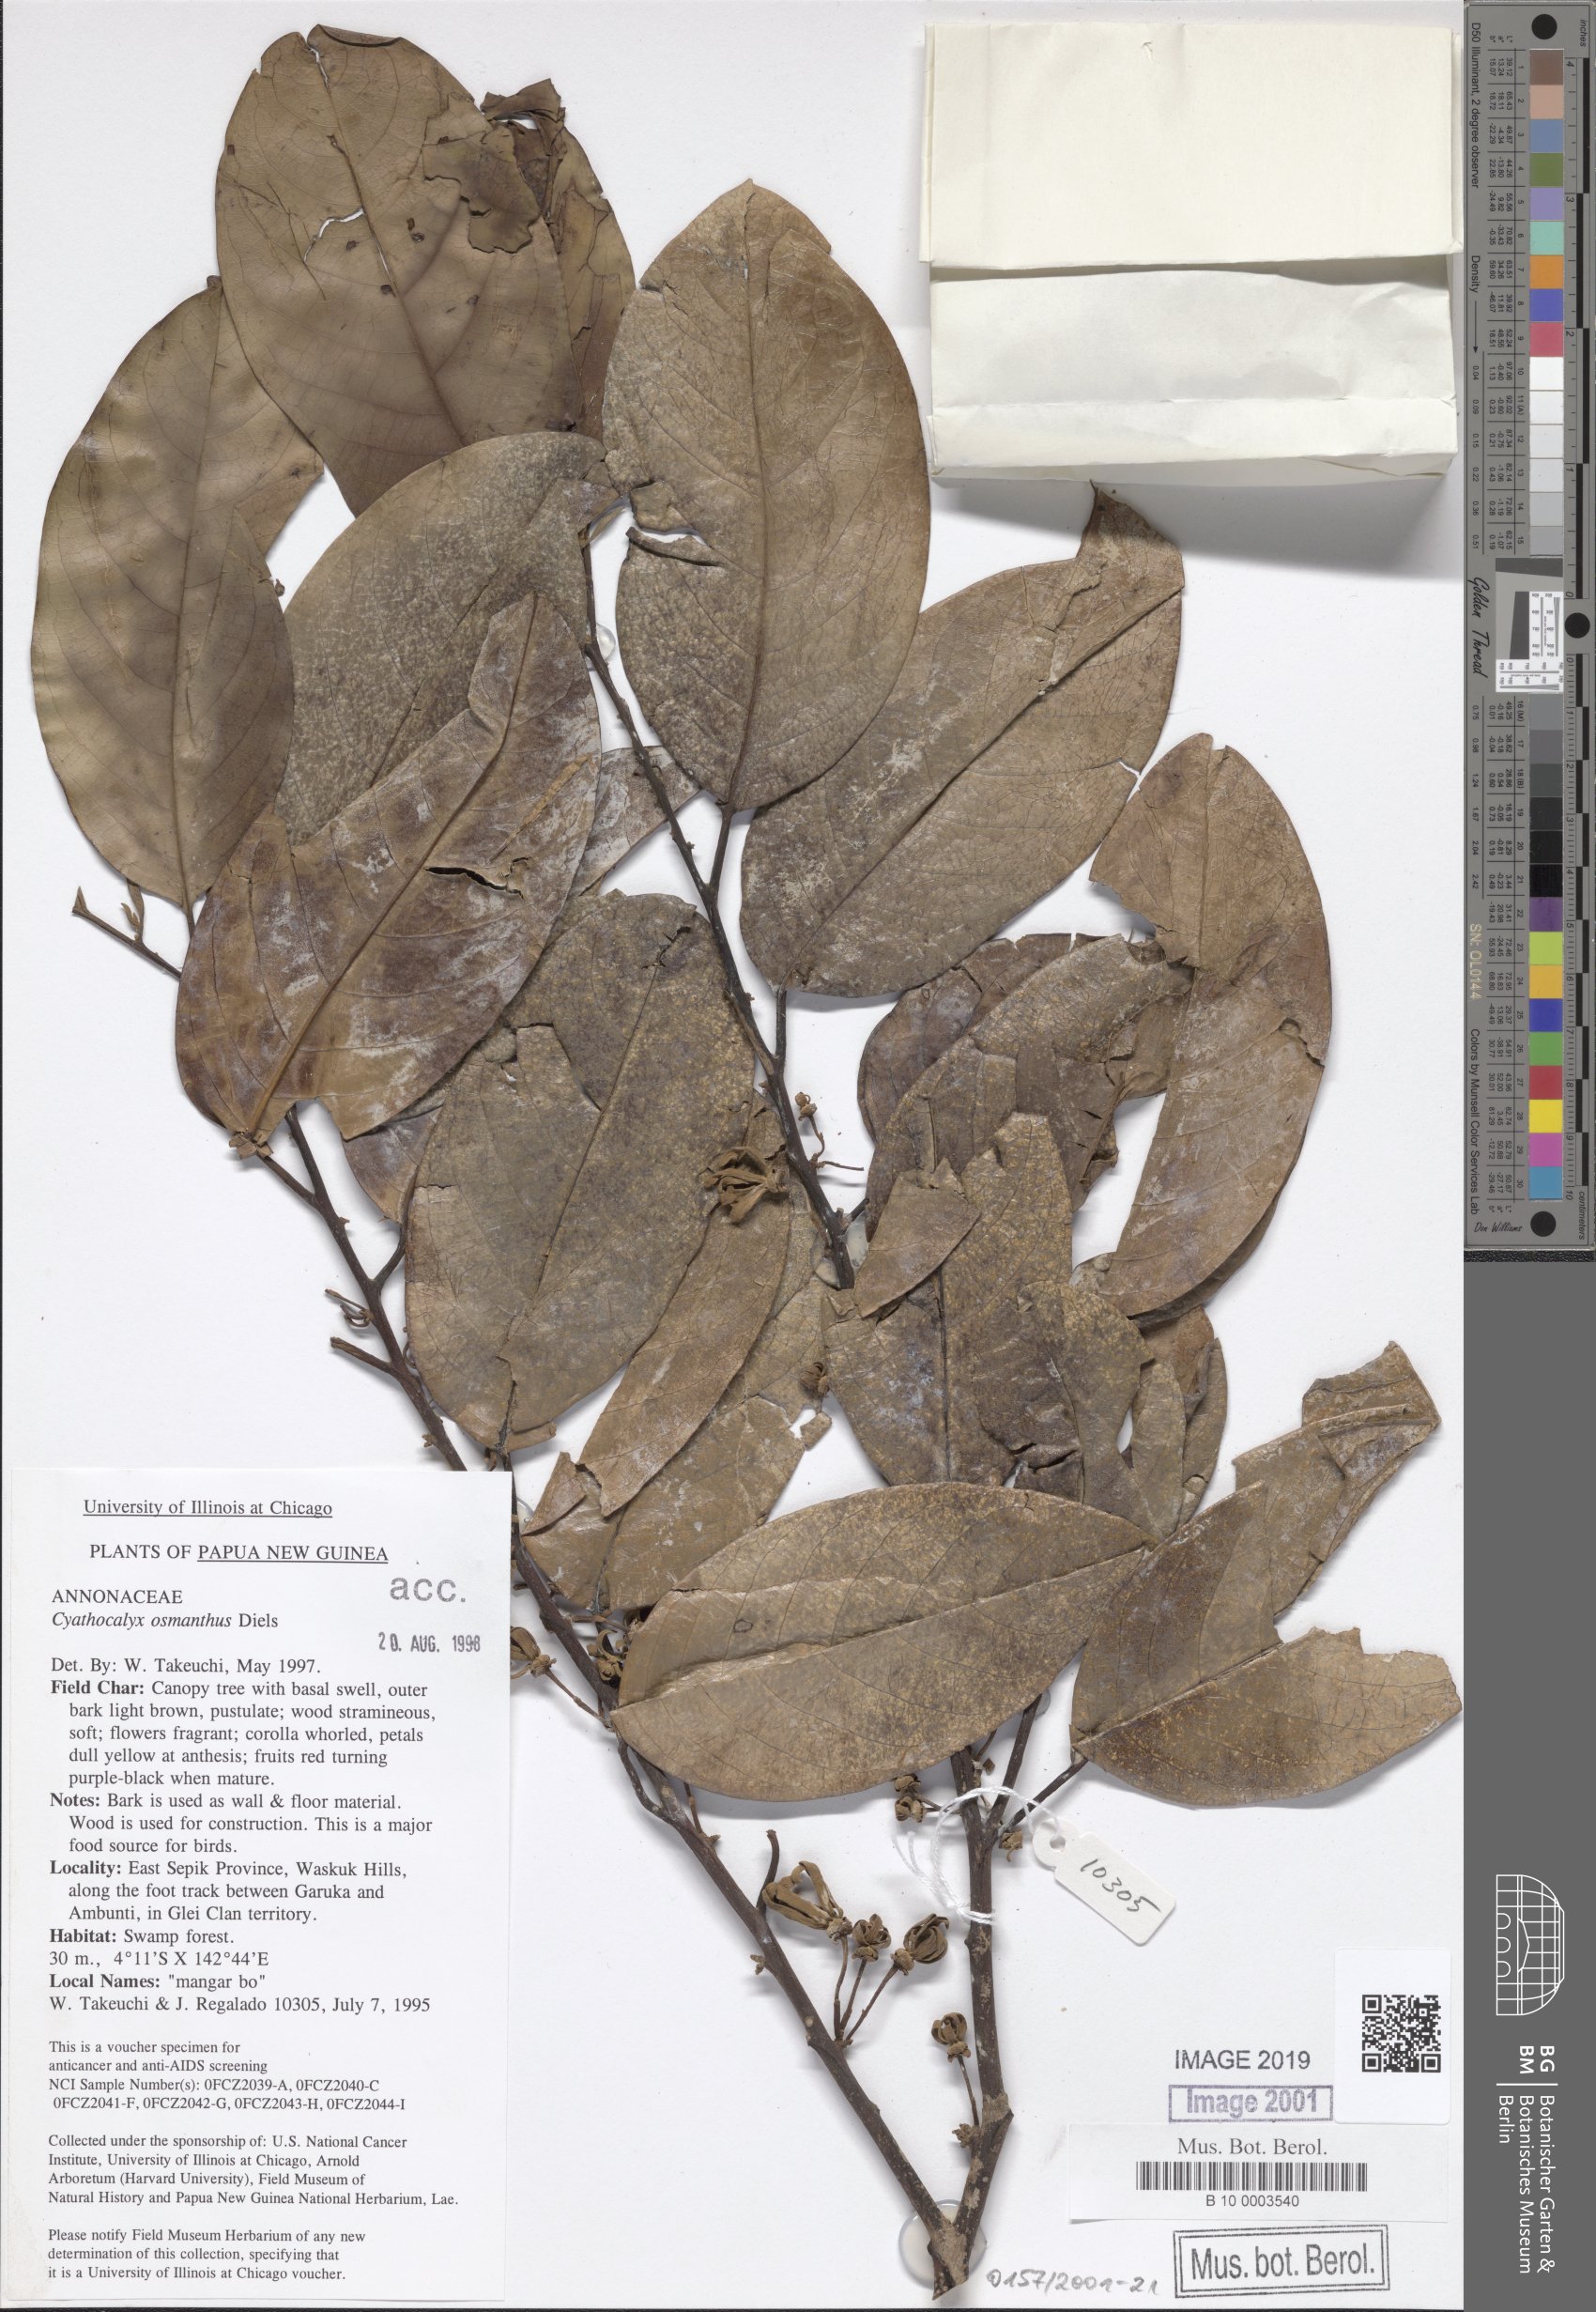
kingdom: Plantae
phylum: Tracheophyta
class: Magnoliopsida
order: Magnoliales
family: Annonaceae
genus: Drepananthus
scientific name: Drepananthus obtusifolius
